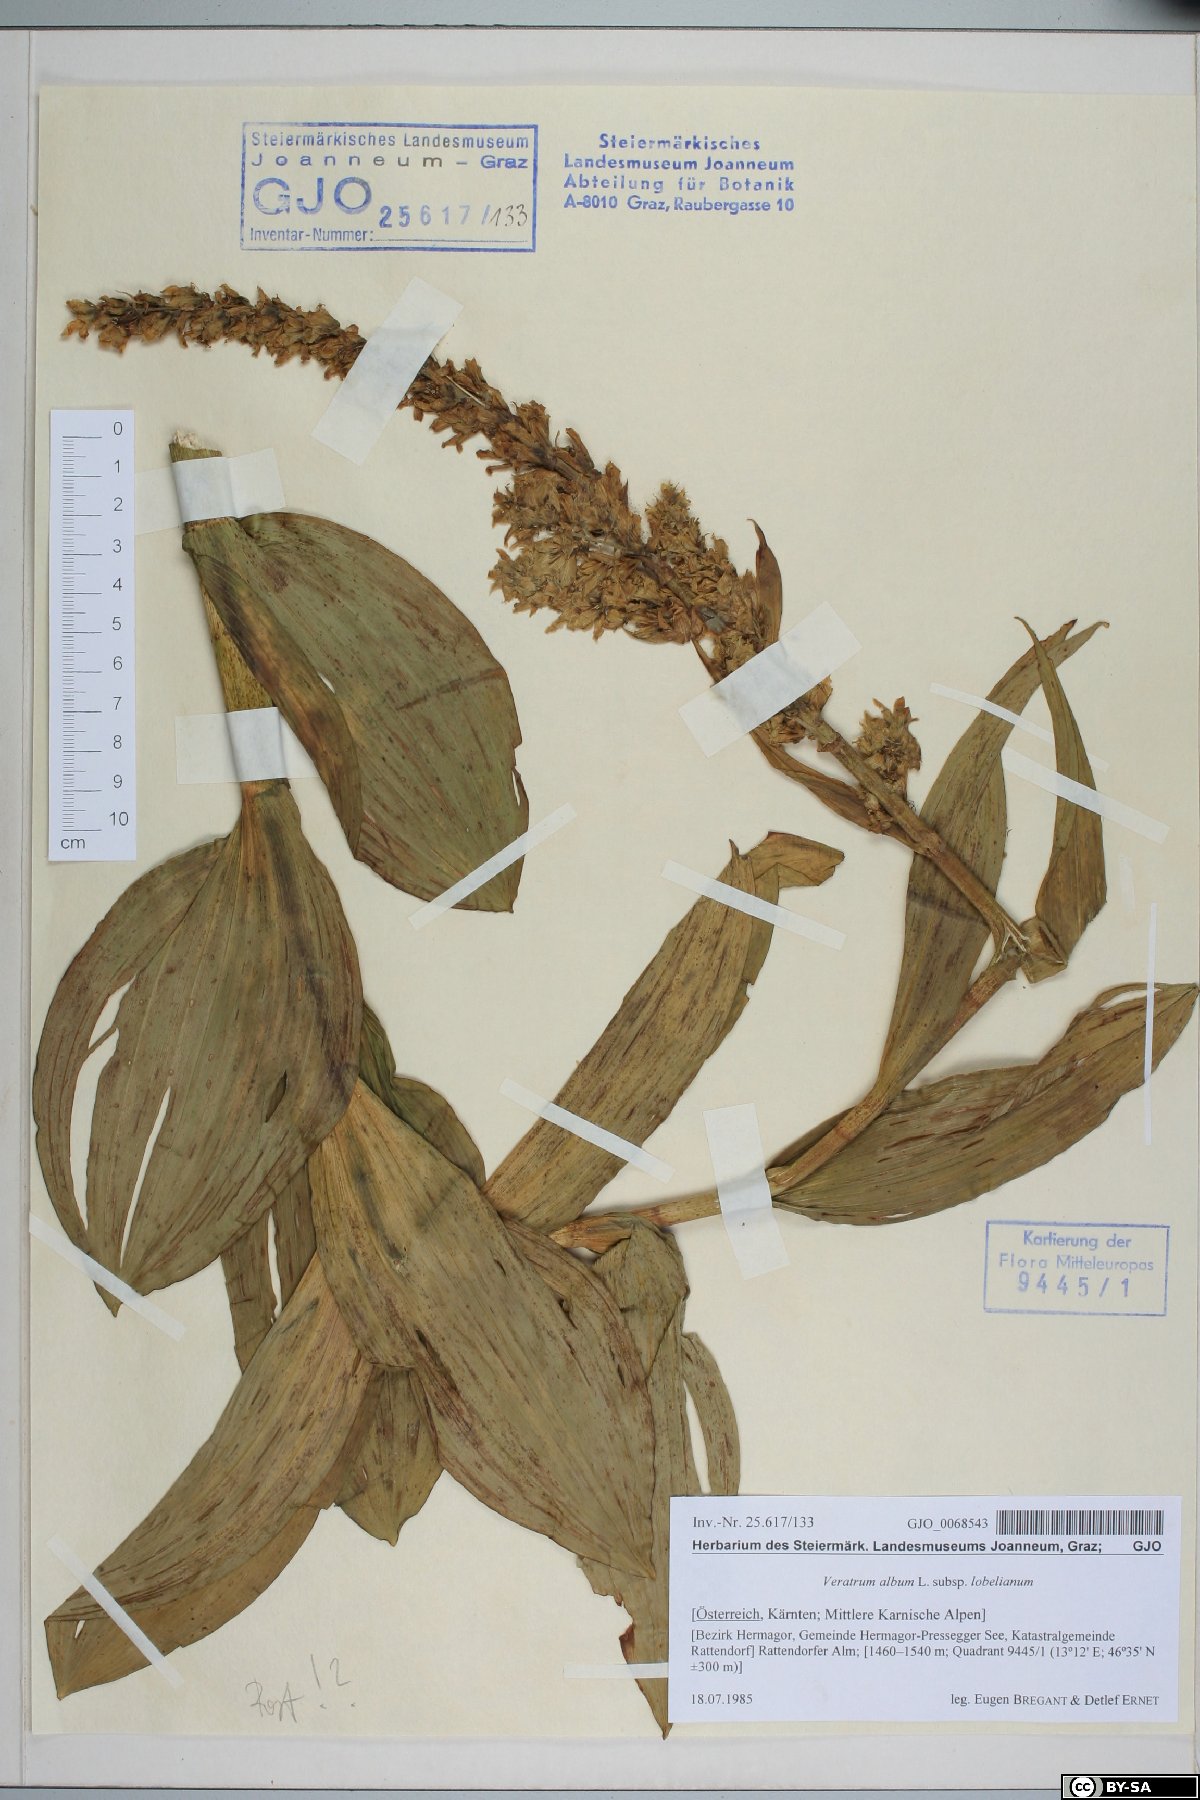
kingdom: Plantae
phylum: Tracheophyta
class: Liliopsida
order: Liliales
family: Melanthiaceae
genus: Veratrum
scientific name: Veratrum lobelianum
